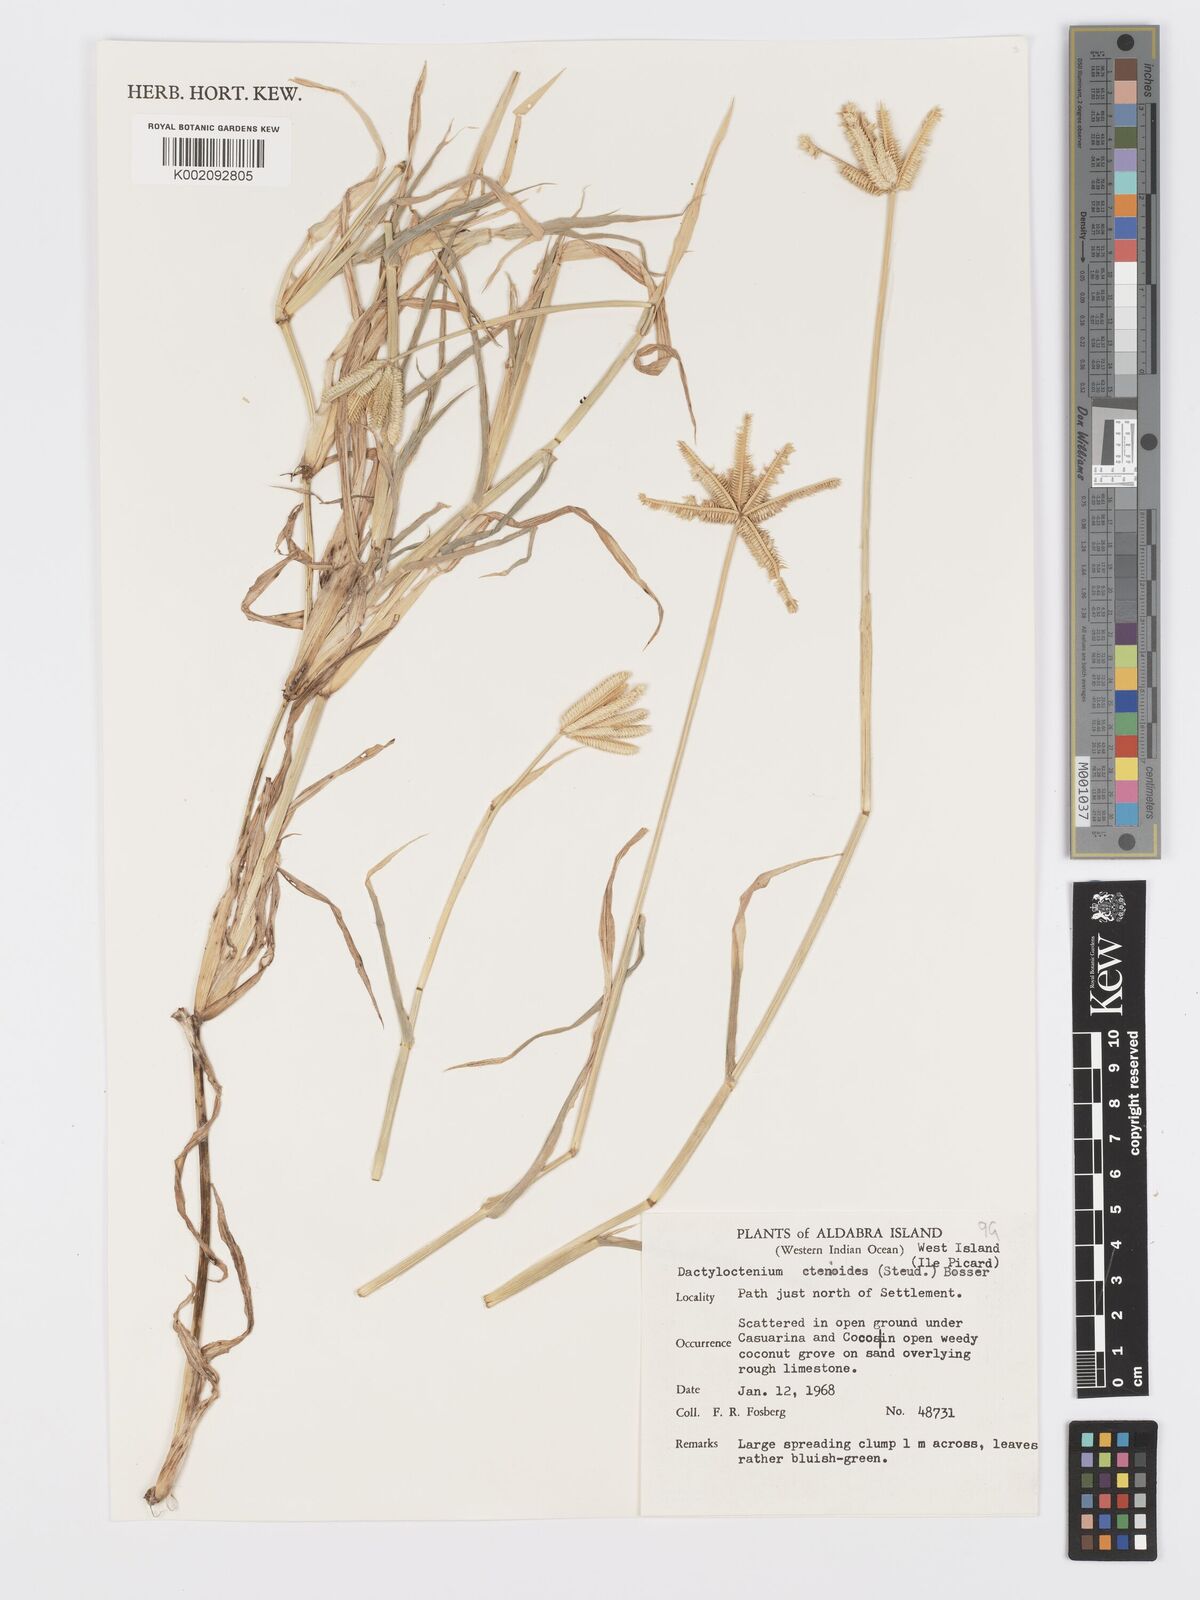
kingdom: Plantae
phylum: Tracheophyta
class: Liliopsida
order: Poales
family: Poaceae
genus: Dactyloctenium
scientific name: Dactyloctenium ctenoides
